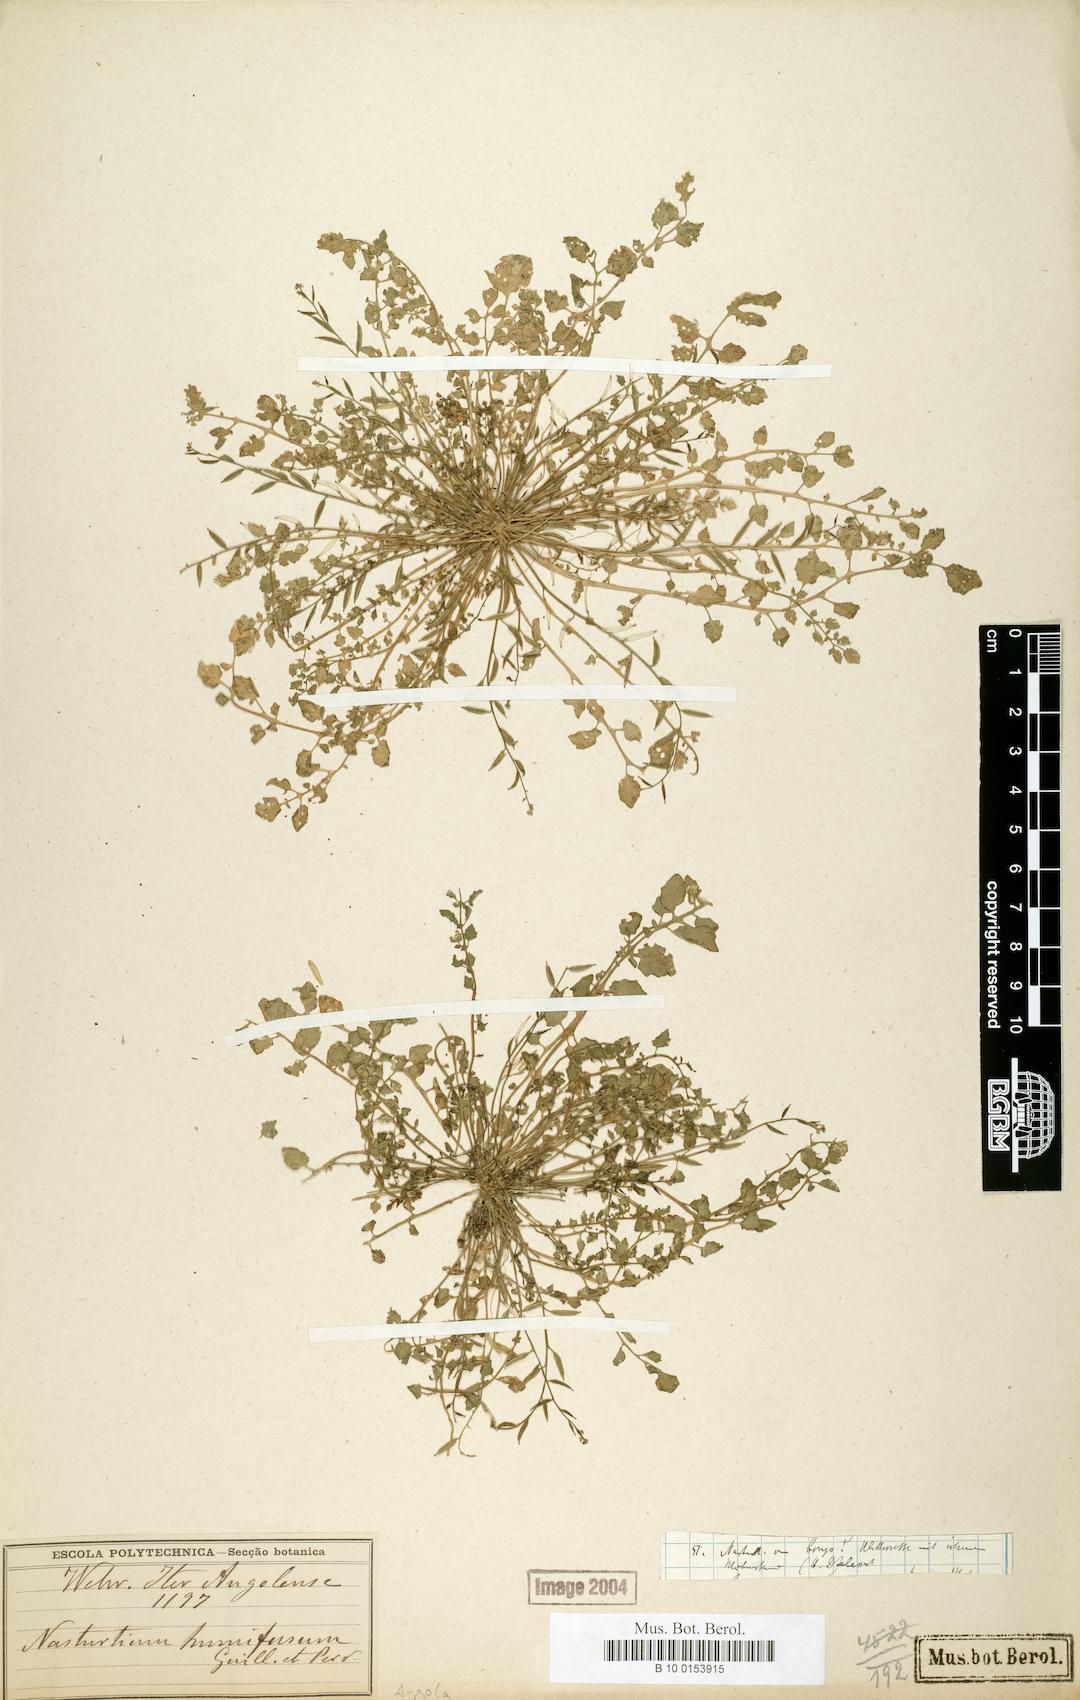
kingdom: Plantae
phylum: Tracheophyta
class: Magnoliopsida
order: Brassicales
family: Brassicaceae
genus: Rorippa
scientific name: Rorippa humifusa
